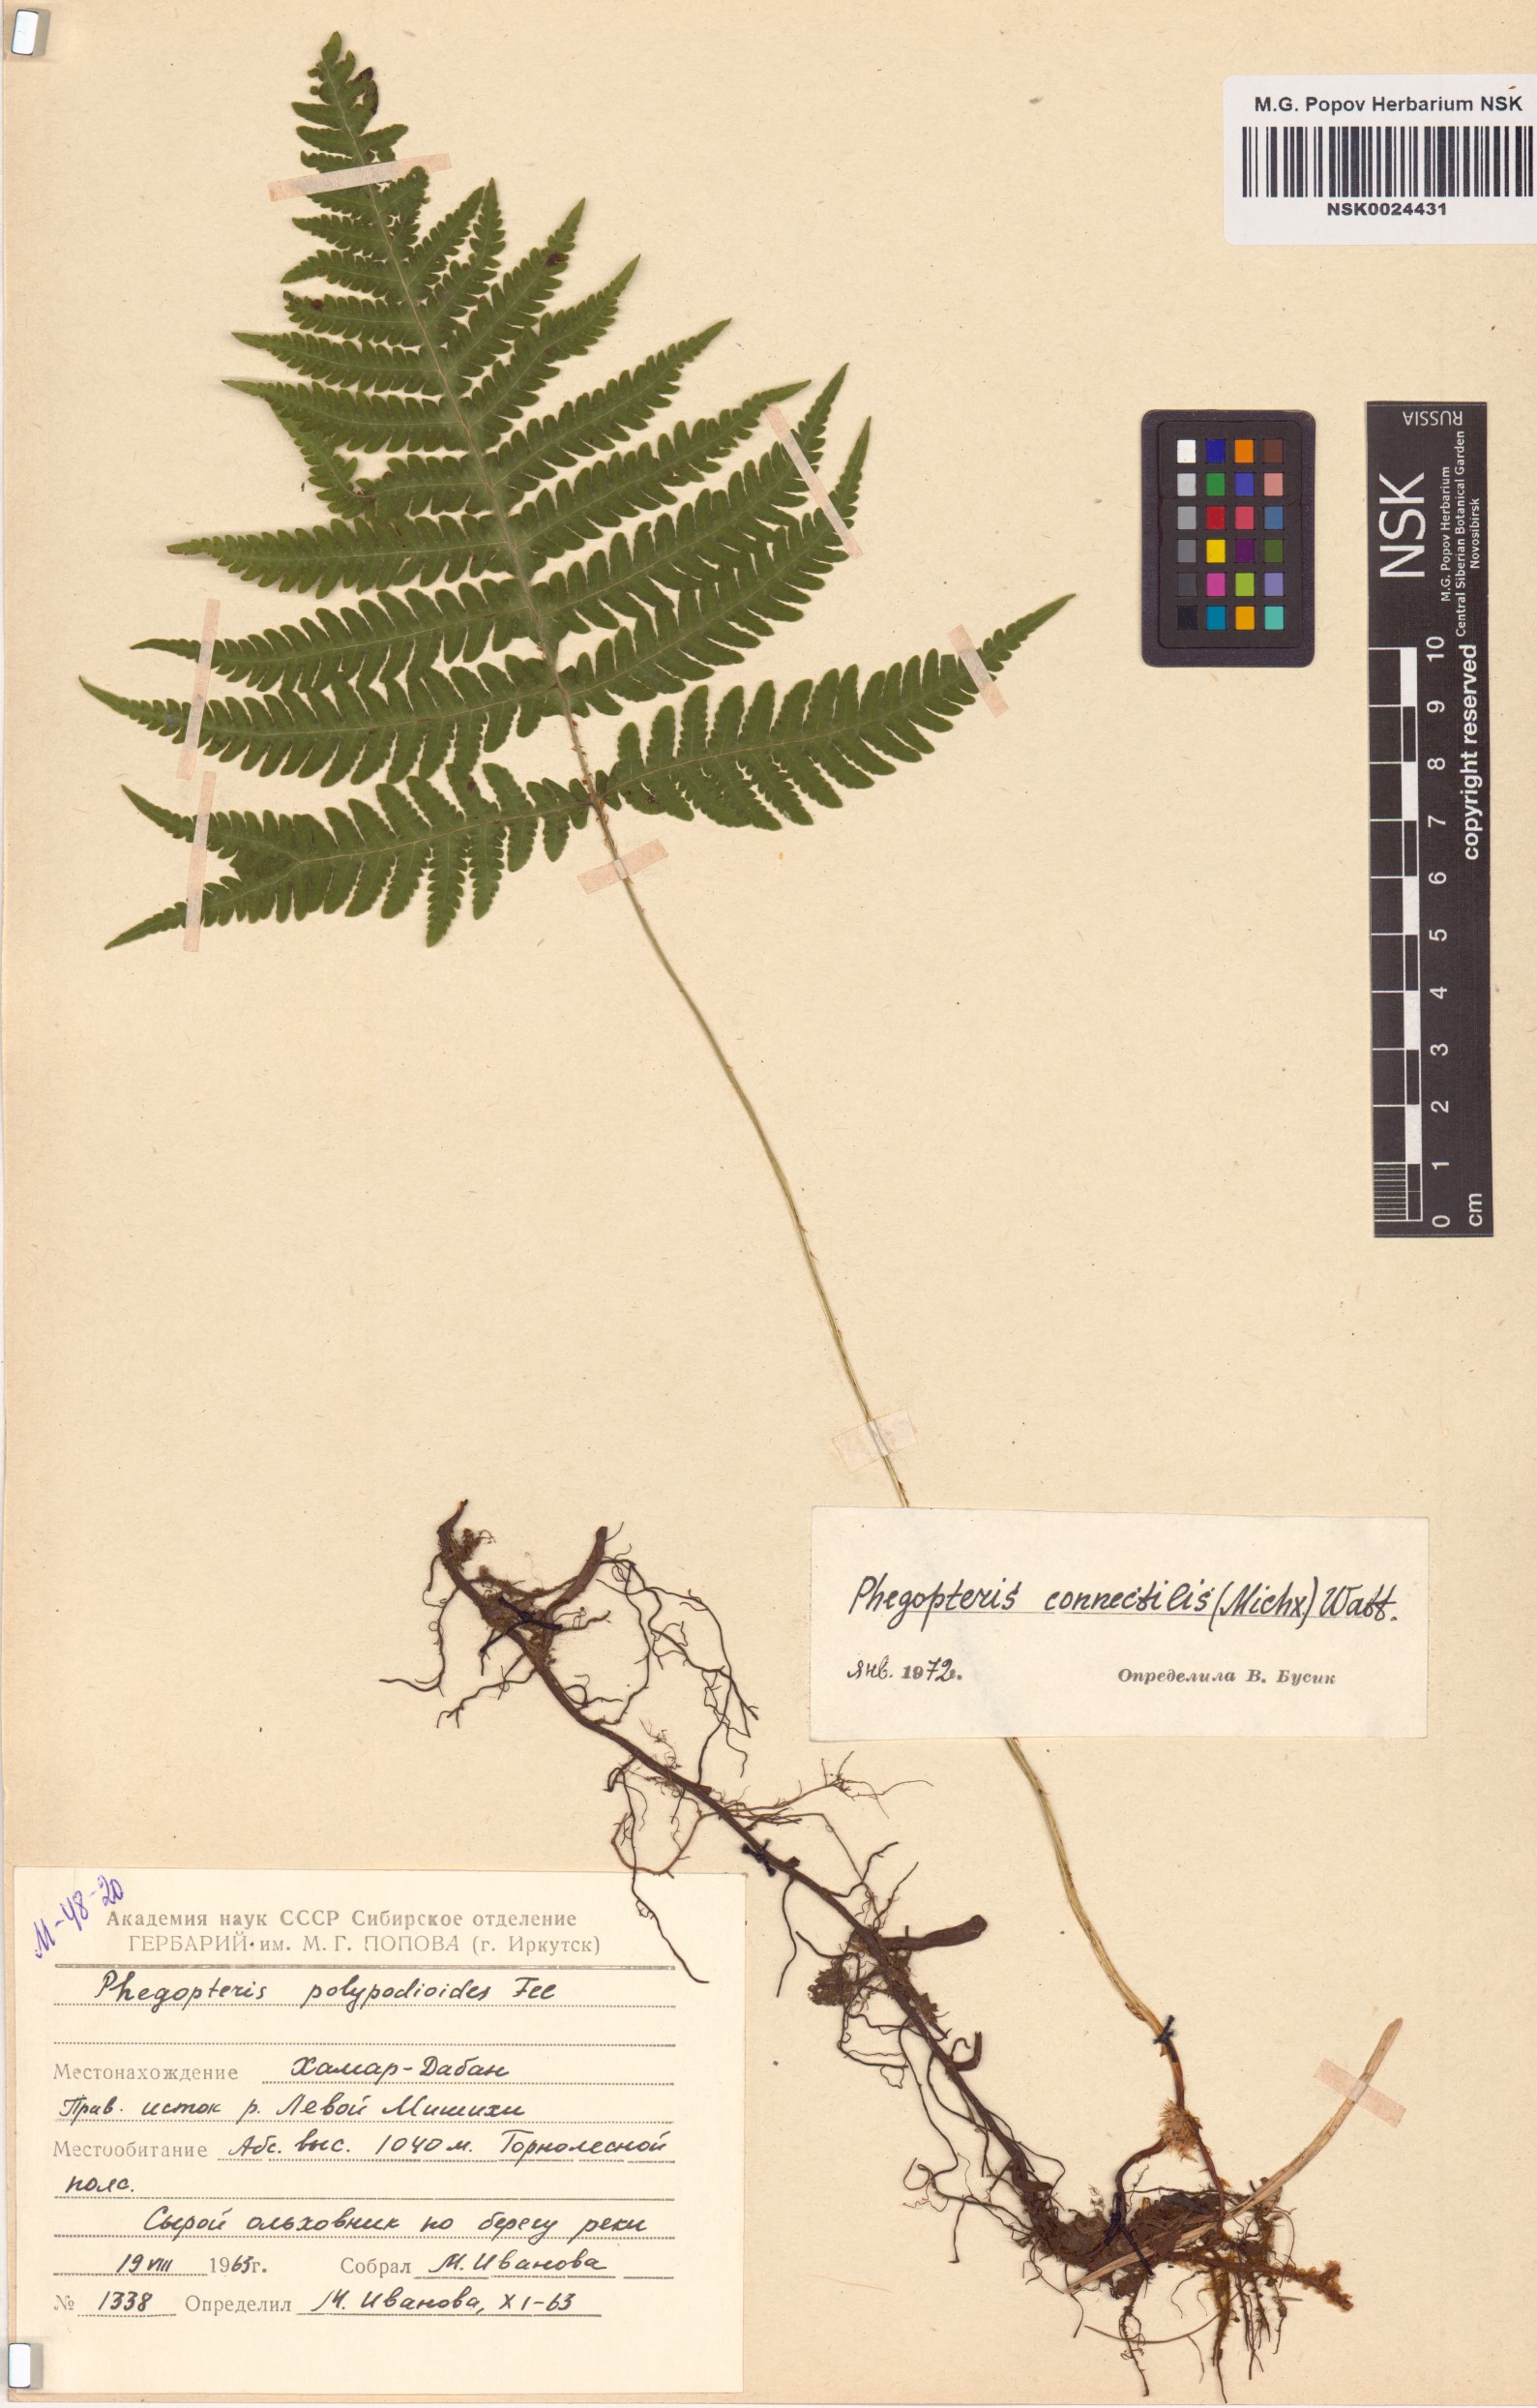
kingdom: Plantae
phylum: Tracheophyta
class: Polypodiopsida
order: Polypodiales
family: Thelypteridaceae
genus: Phegopteris
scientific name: Phegopteris connectilis
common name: Beech fern
